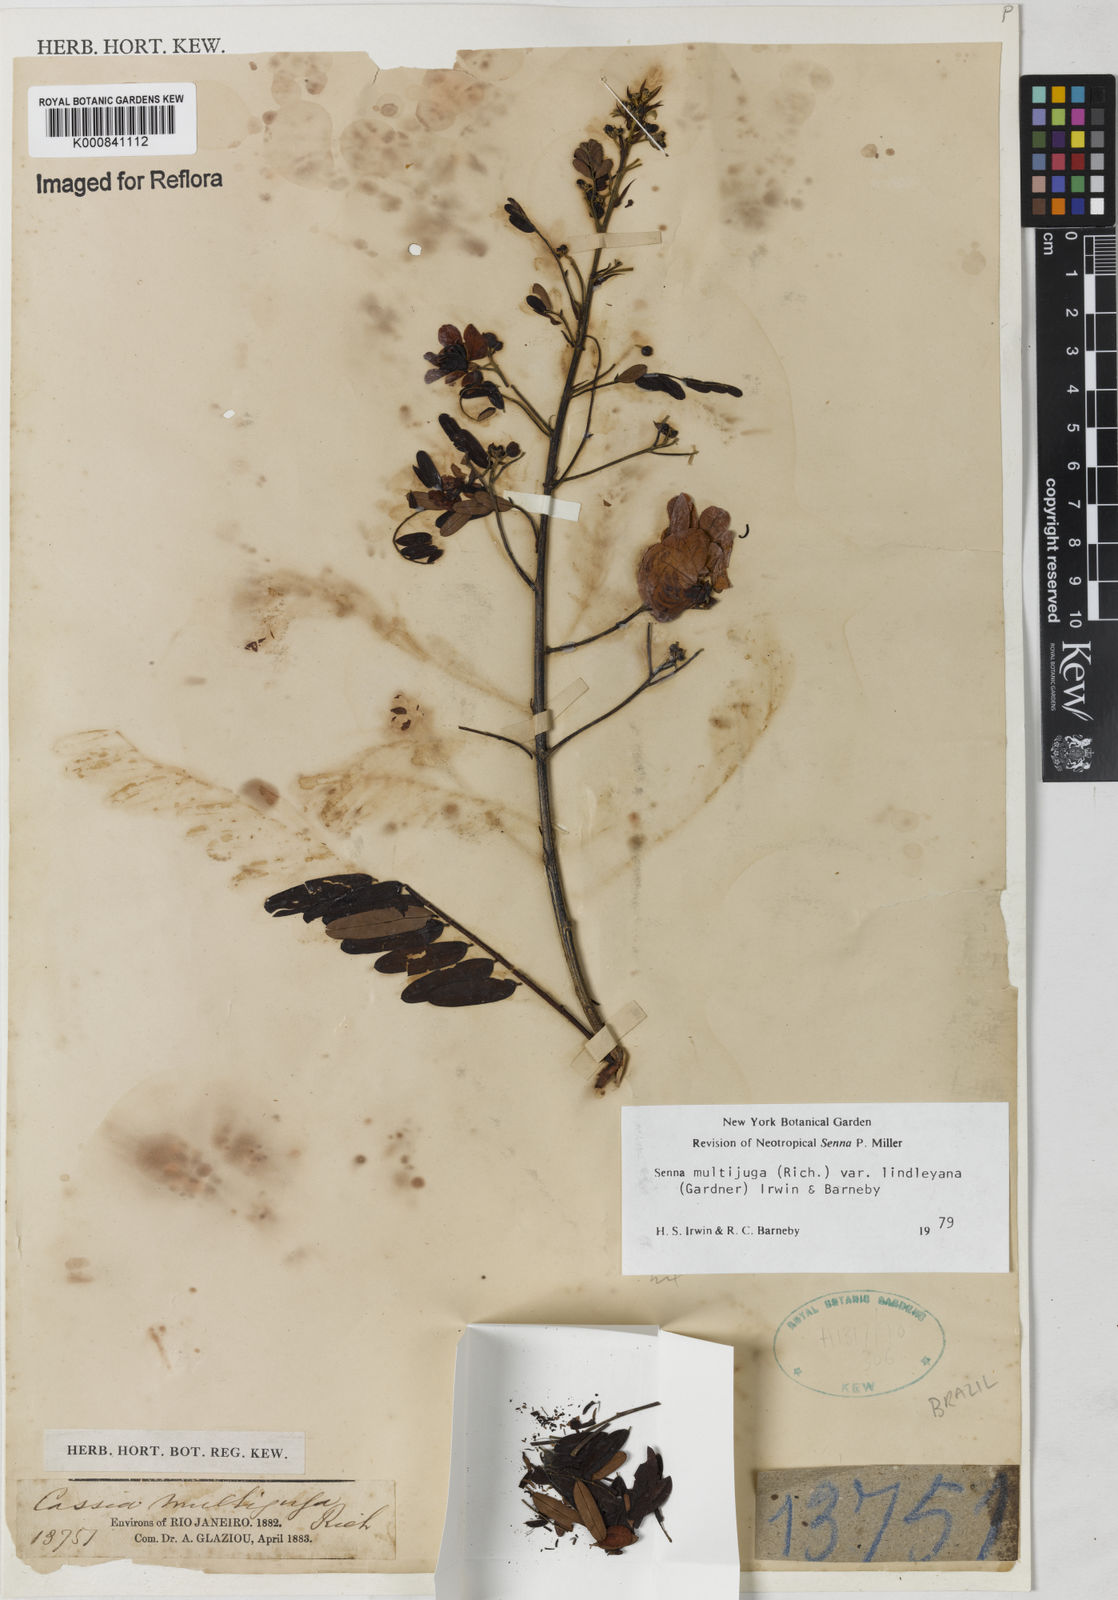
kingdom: Plantae
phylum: Tracheophyta
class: Magnoliopsida
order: Fabales
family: Fabaceae
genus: Senna
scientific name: Senna multijuga
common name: False sicklepod
